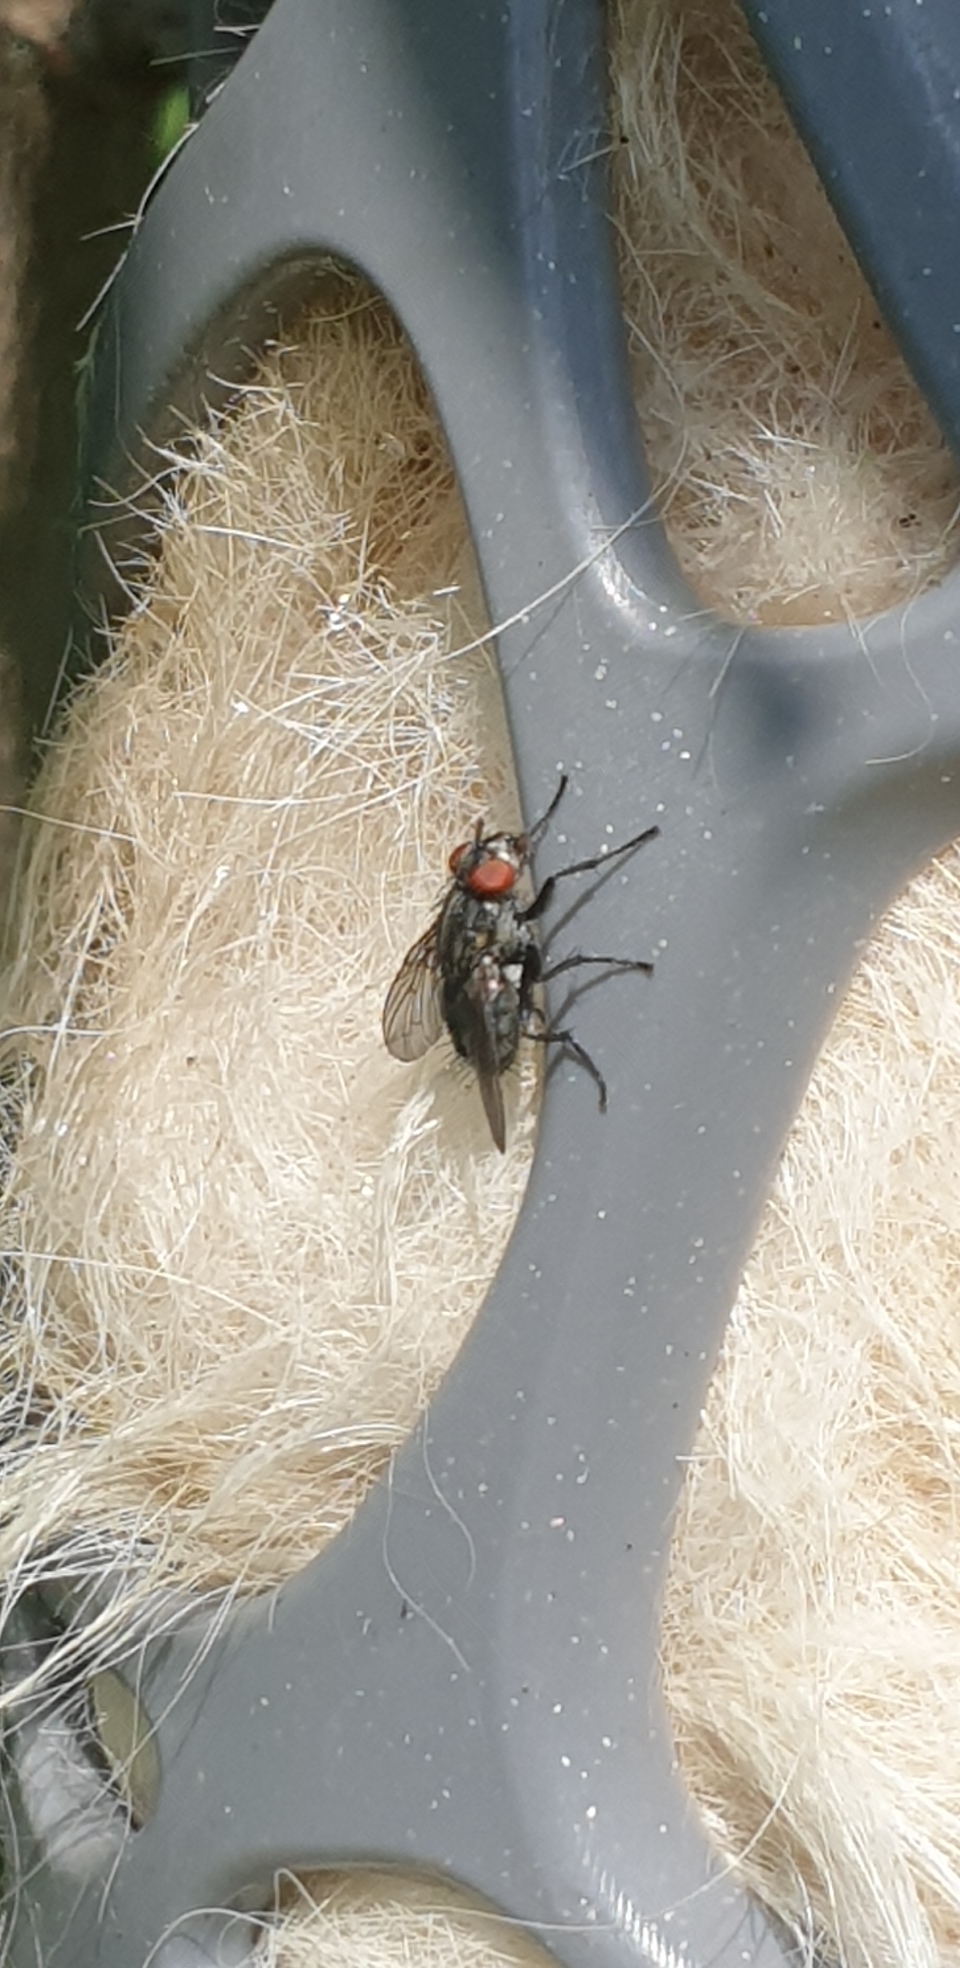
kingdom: Animalia
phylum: Arthropoda
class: Insecta
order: Diptera
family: Sarcophagidae
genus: Sarcophaga
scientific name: Sarcophaga
